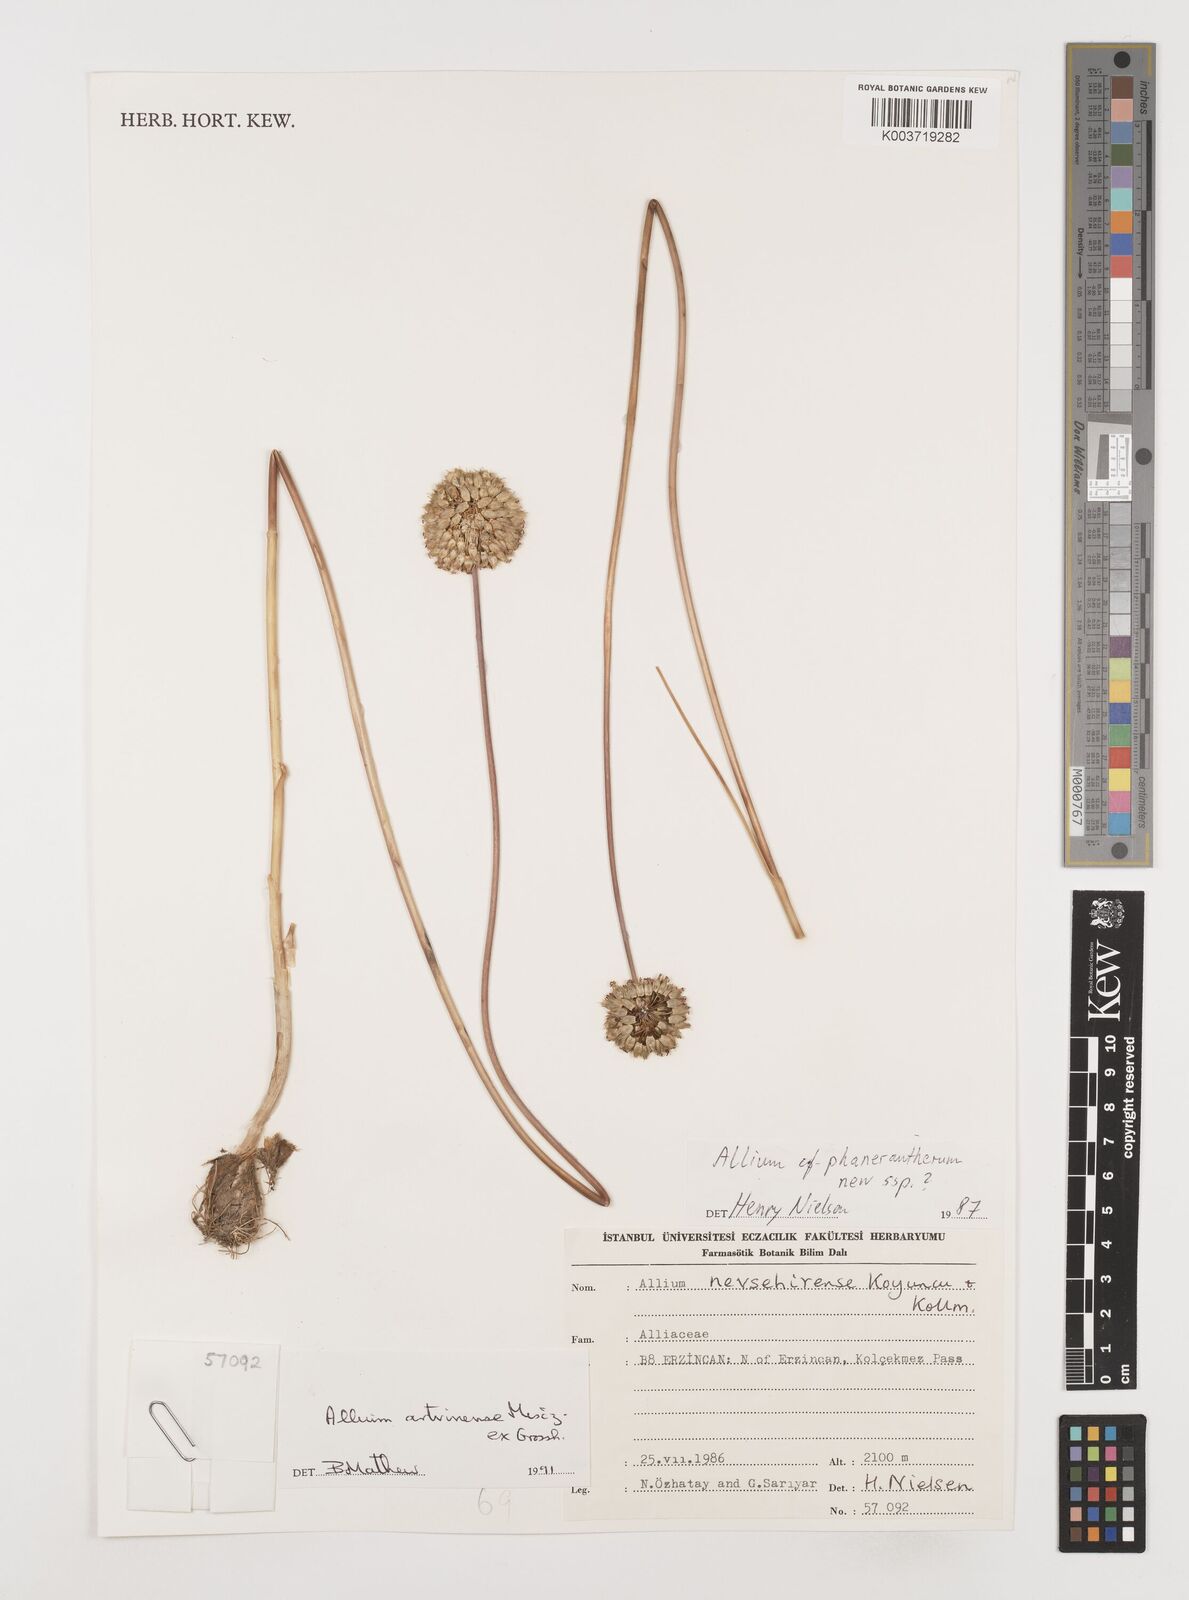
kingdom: Plantae
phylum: Tracheophyta
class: Liliopsida
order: Asparagales
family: Amaryllidaceae
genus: Allium
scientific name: Allium affine
